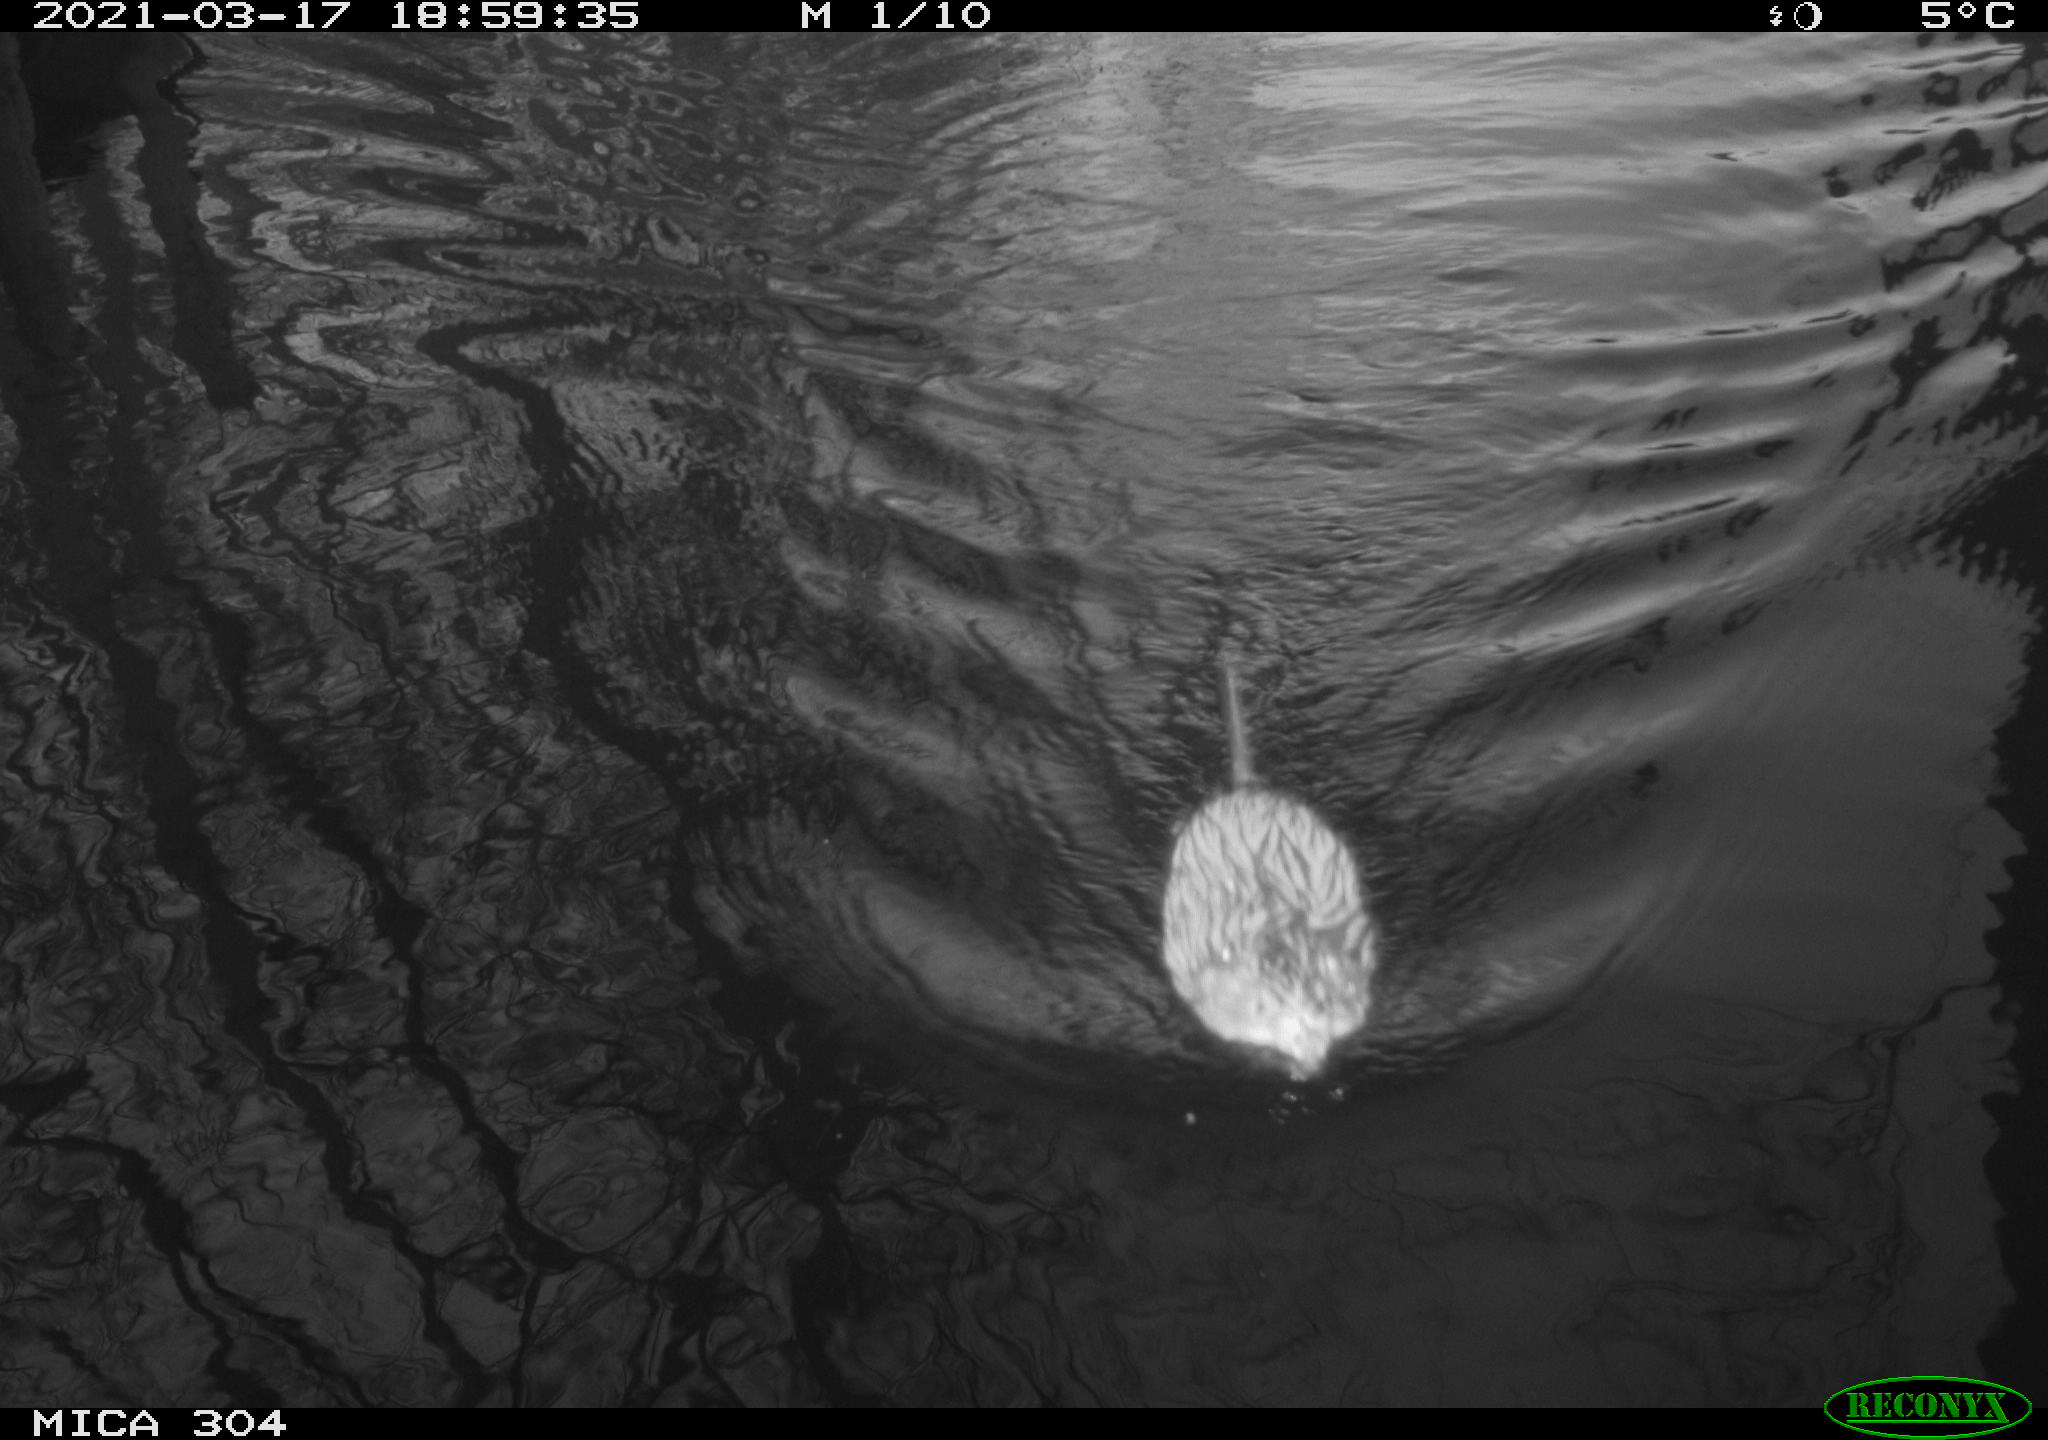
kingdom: Animalia
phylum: Chordata
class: Mammalia
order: Rodentia
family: Cricetidae
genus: Ondatra
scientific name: Ondatra zibethicus
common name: Muskrat
